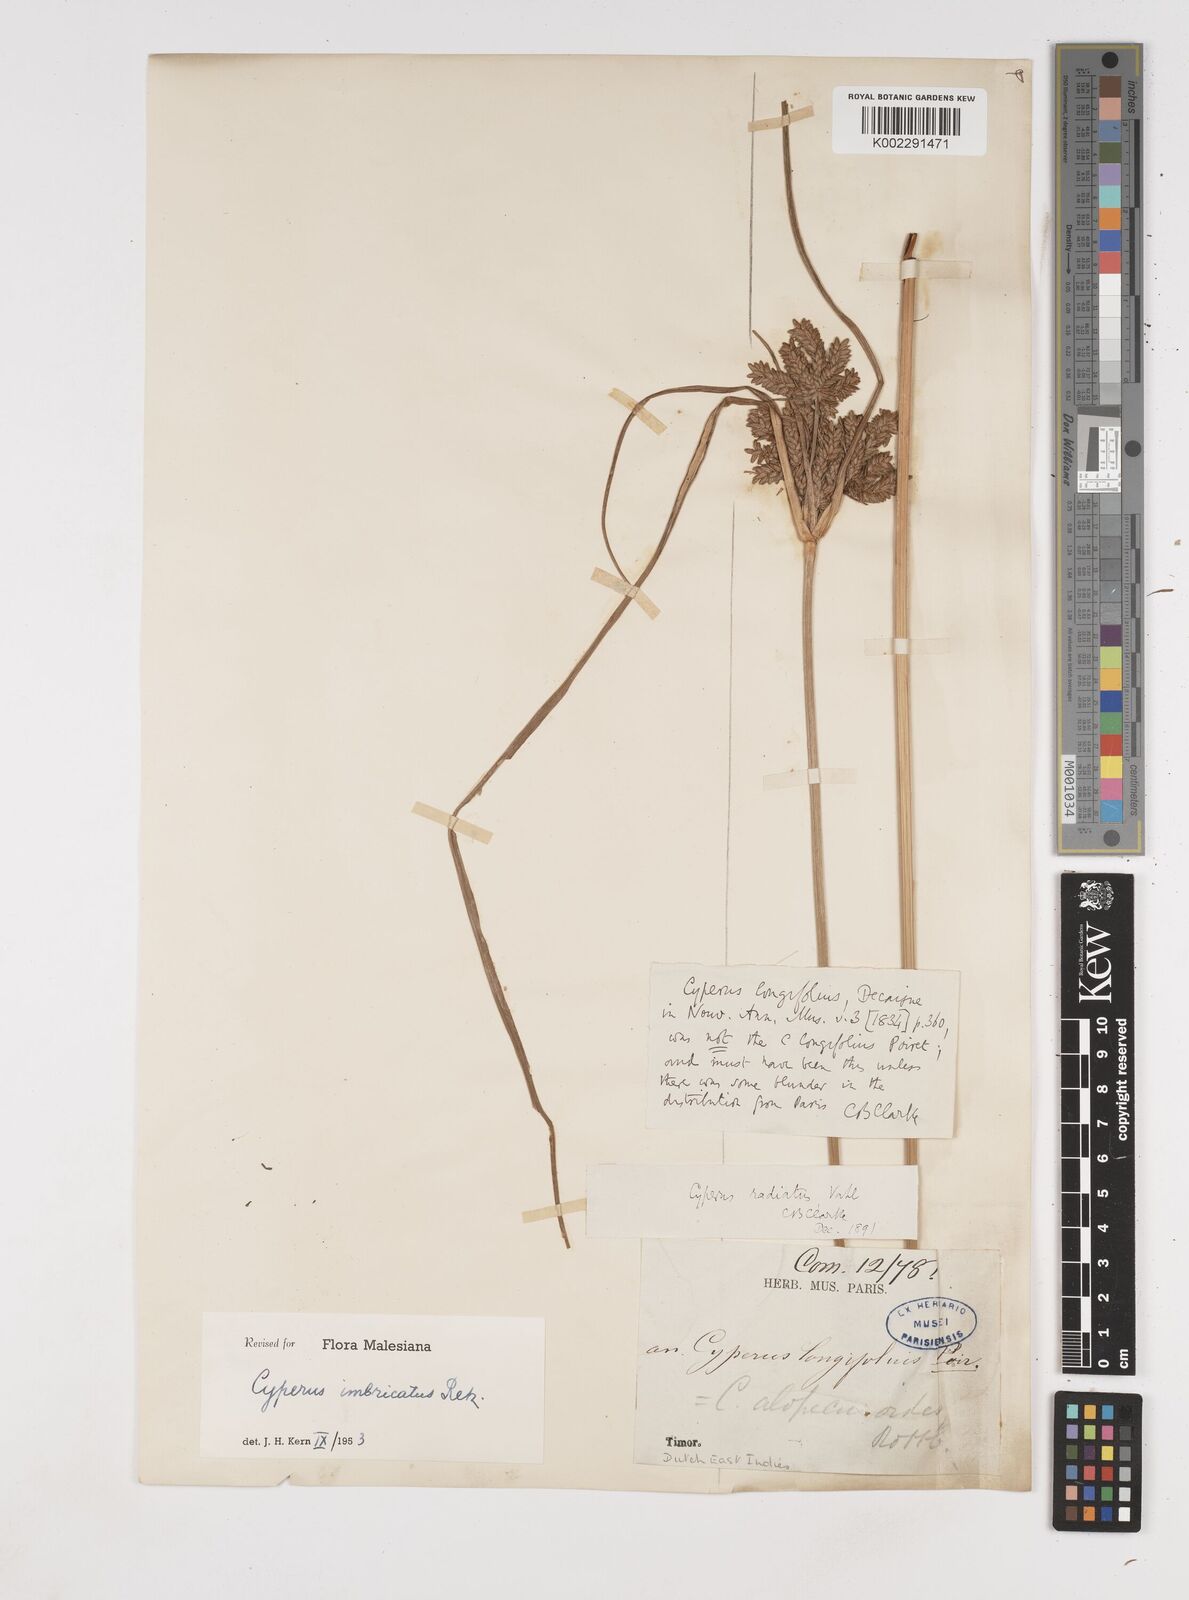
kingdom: Plantae
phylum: Tracheophyta
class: Liliopsida
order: Poales
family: Cyperaceae
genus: Cyperus
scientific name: Cyperus imbricatus
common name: Shingle flatsedge
